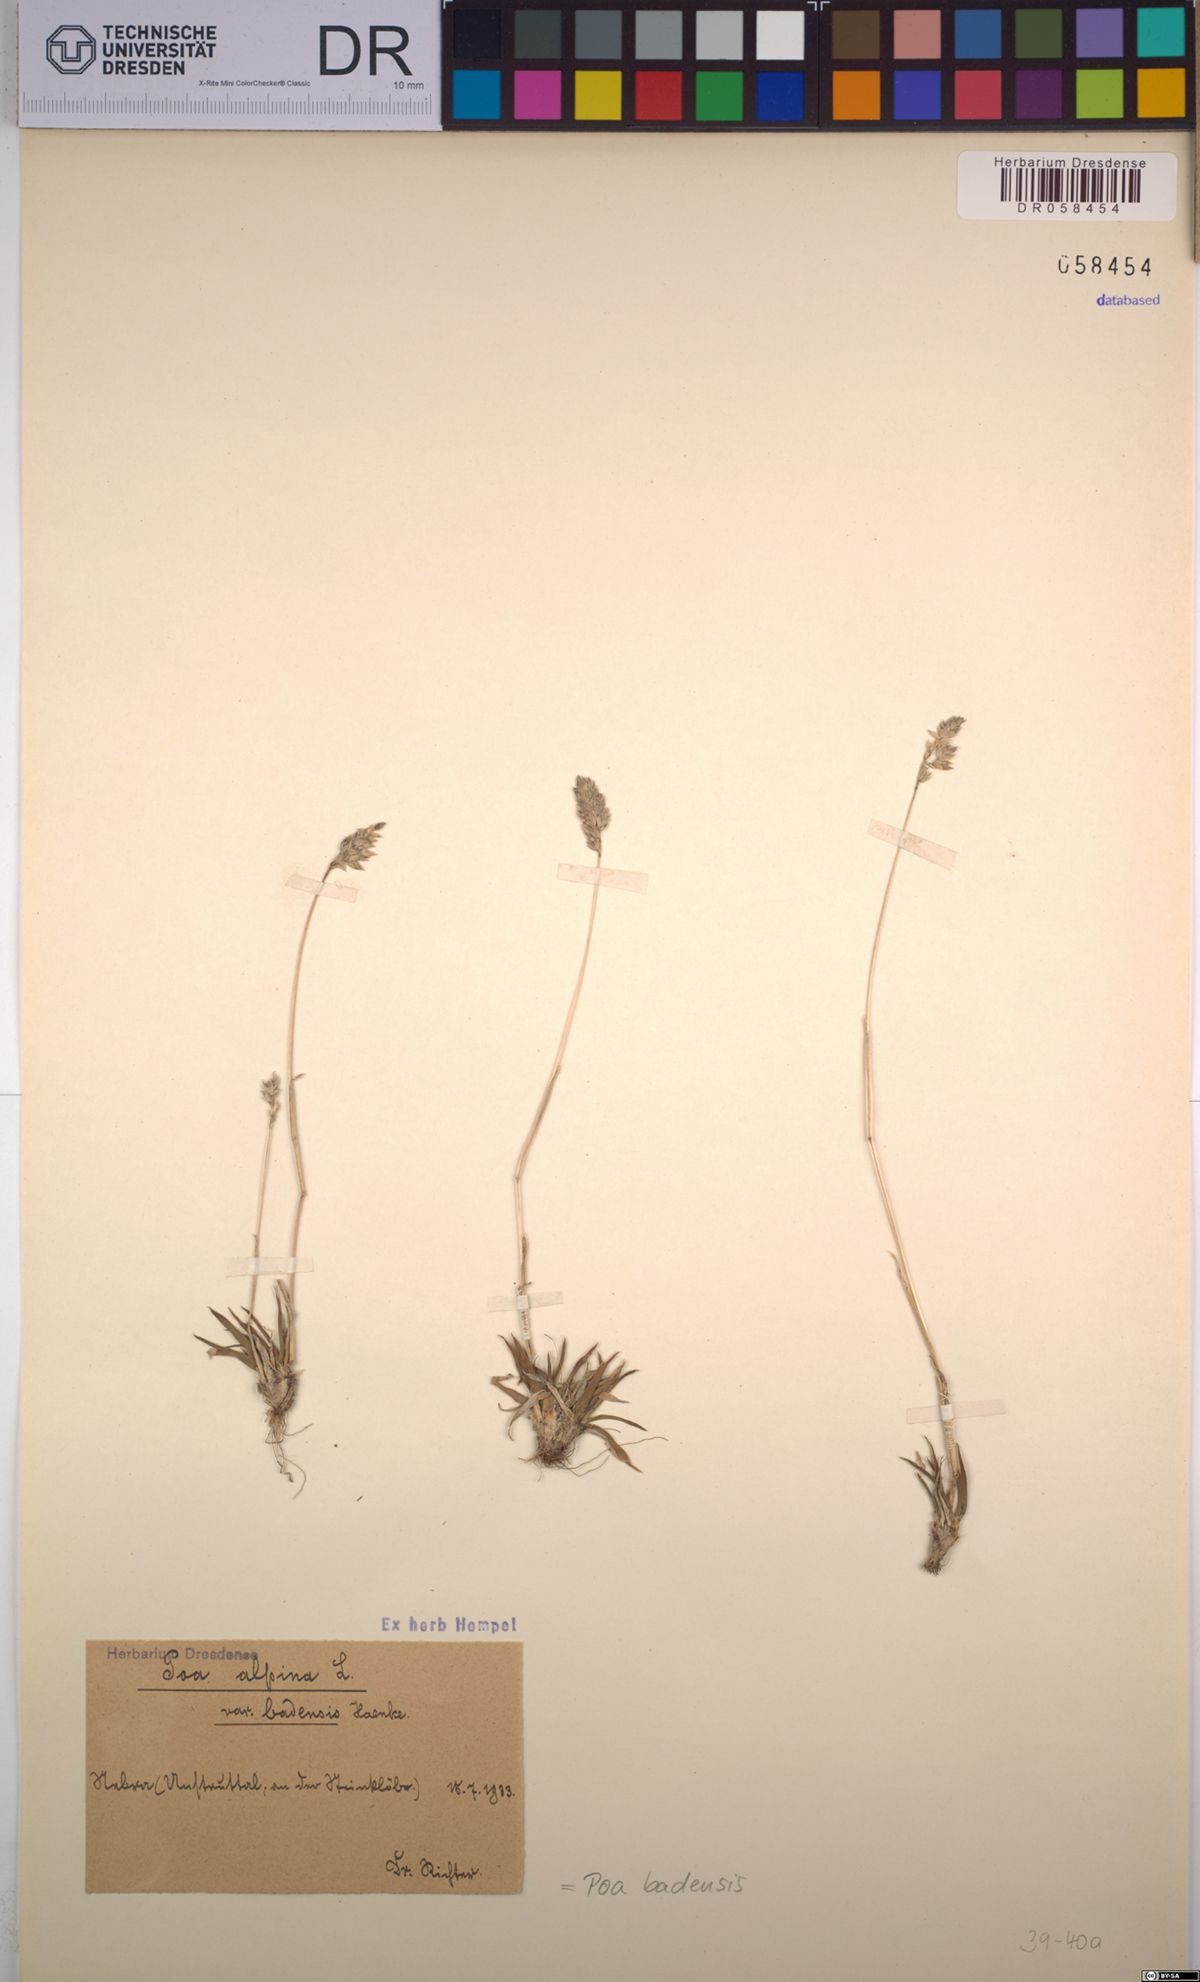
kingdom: Plantae
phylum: Tracheophyta
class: Liliopsida
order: Poales
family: Poaceae
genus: Poa
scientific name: Poa badensis
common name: Baden's bluegrass
